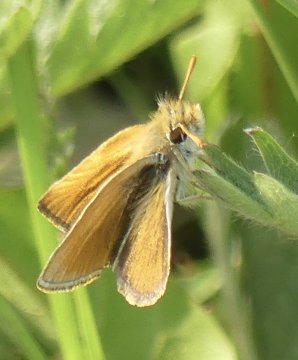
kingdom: Animalia
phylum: Arthropoda
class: Insecta
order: Lepidoptera
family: Hesperiidae
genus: Thymelicus
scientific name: Thymelicus lineola
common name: European Skipper
